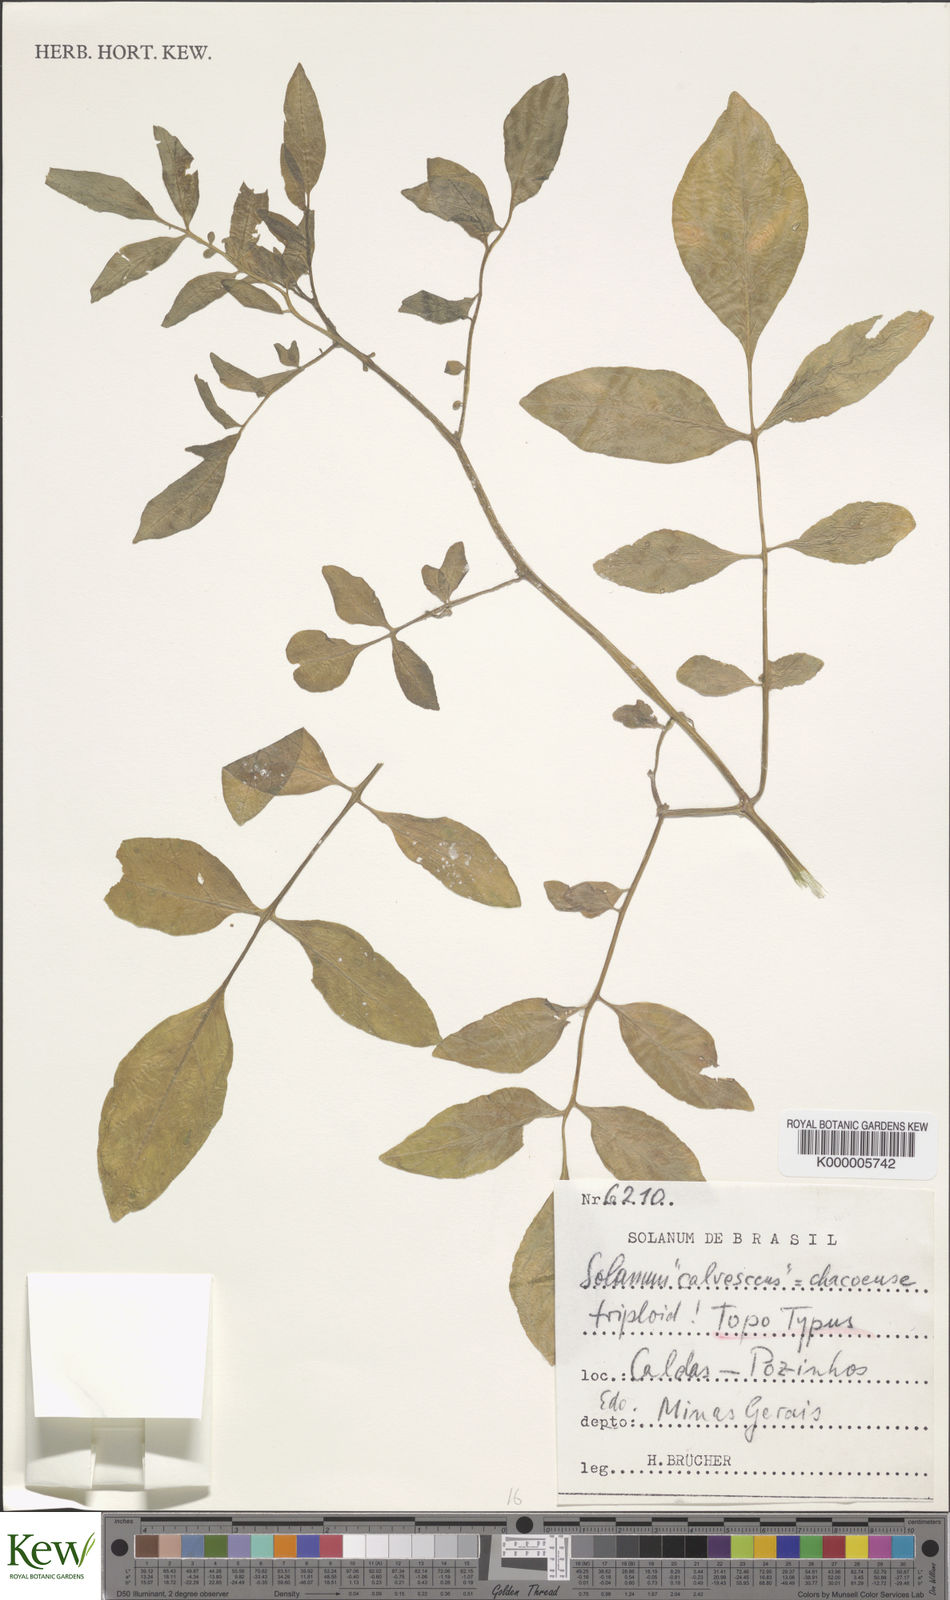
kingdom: Plantae
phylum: Tracheophyta
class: Magnoliopsida
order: Solanales
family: Solanaceae
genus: Solanum
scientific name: Solanum chacoense
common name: Chaco potato
